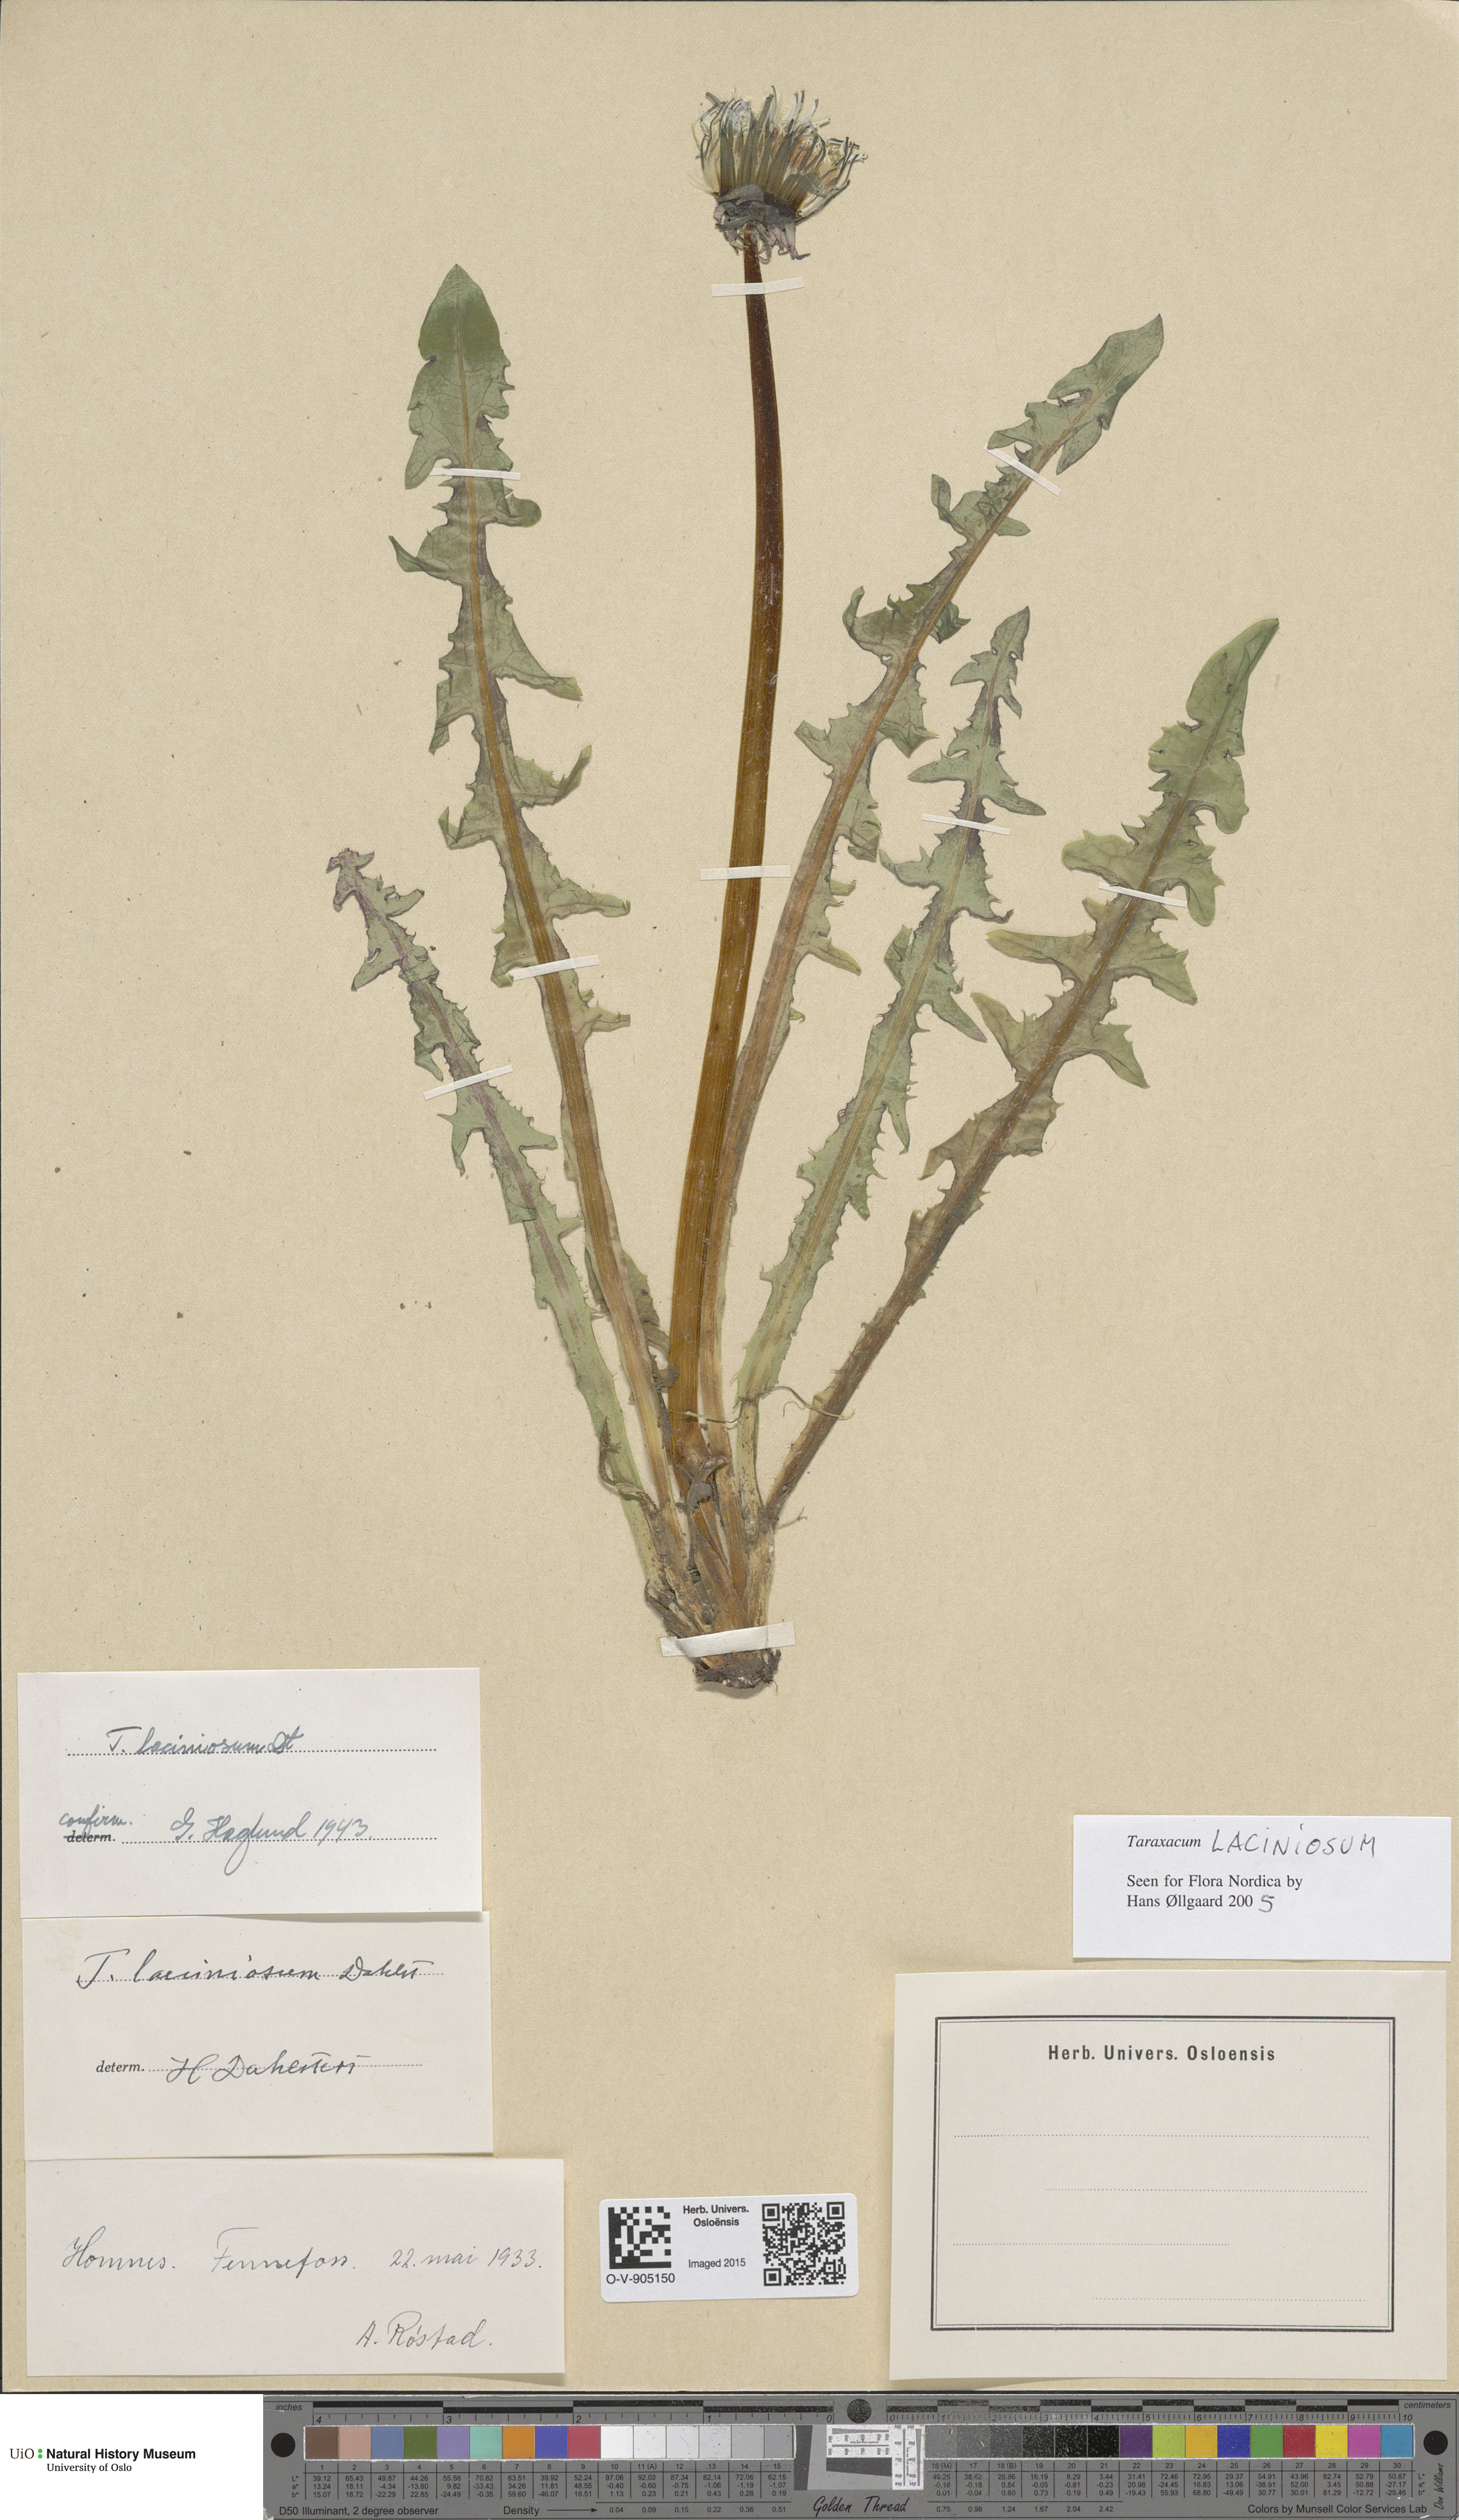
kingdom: Plantae
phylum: Tracheophyta
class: Magnoliopsida
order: Asterales
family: Asteraceae
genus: Taraxacum
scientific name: Taraxacum laciniosum
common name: Divided-leaved dandelion
